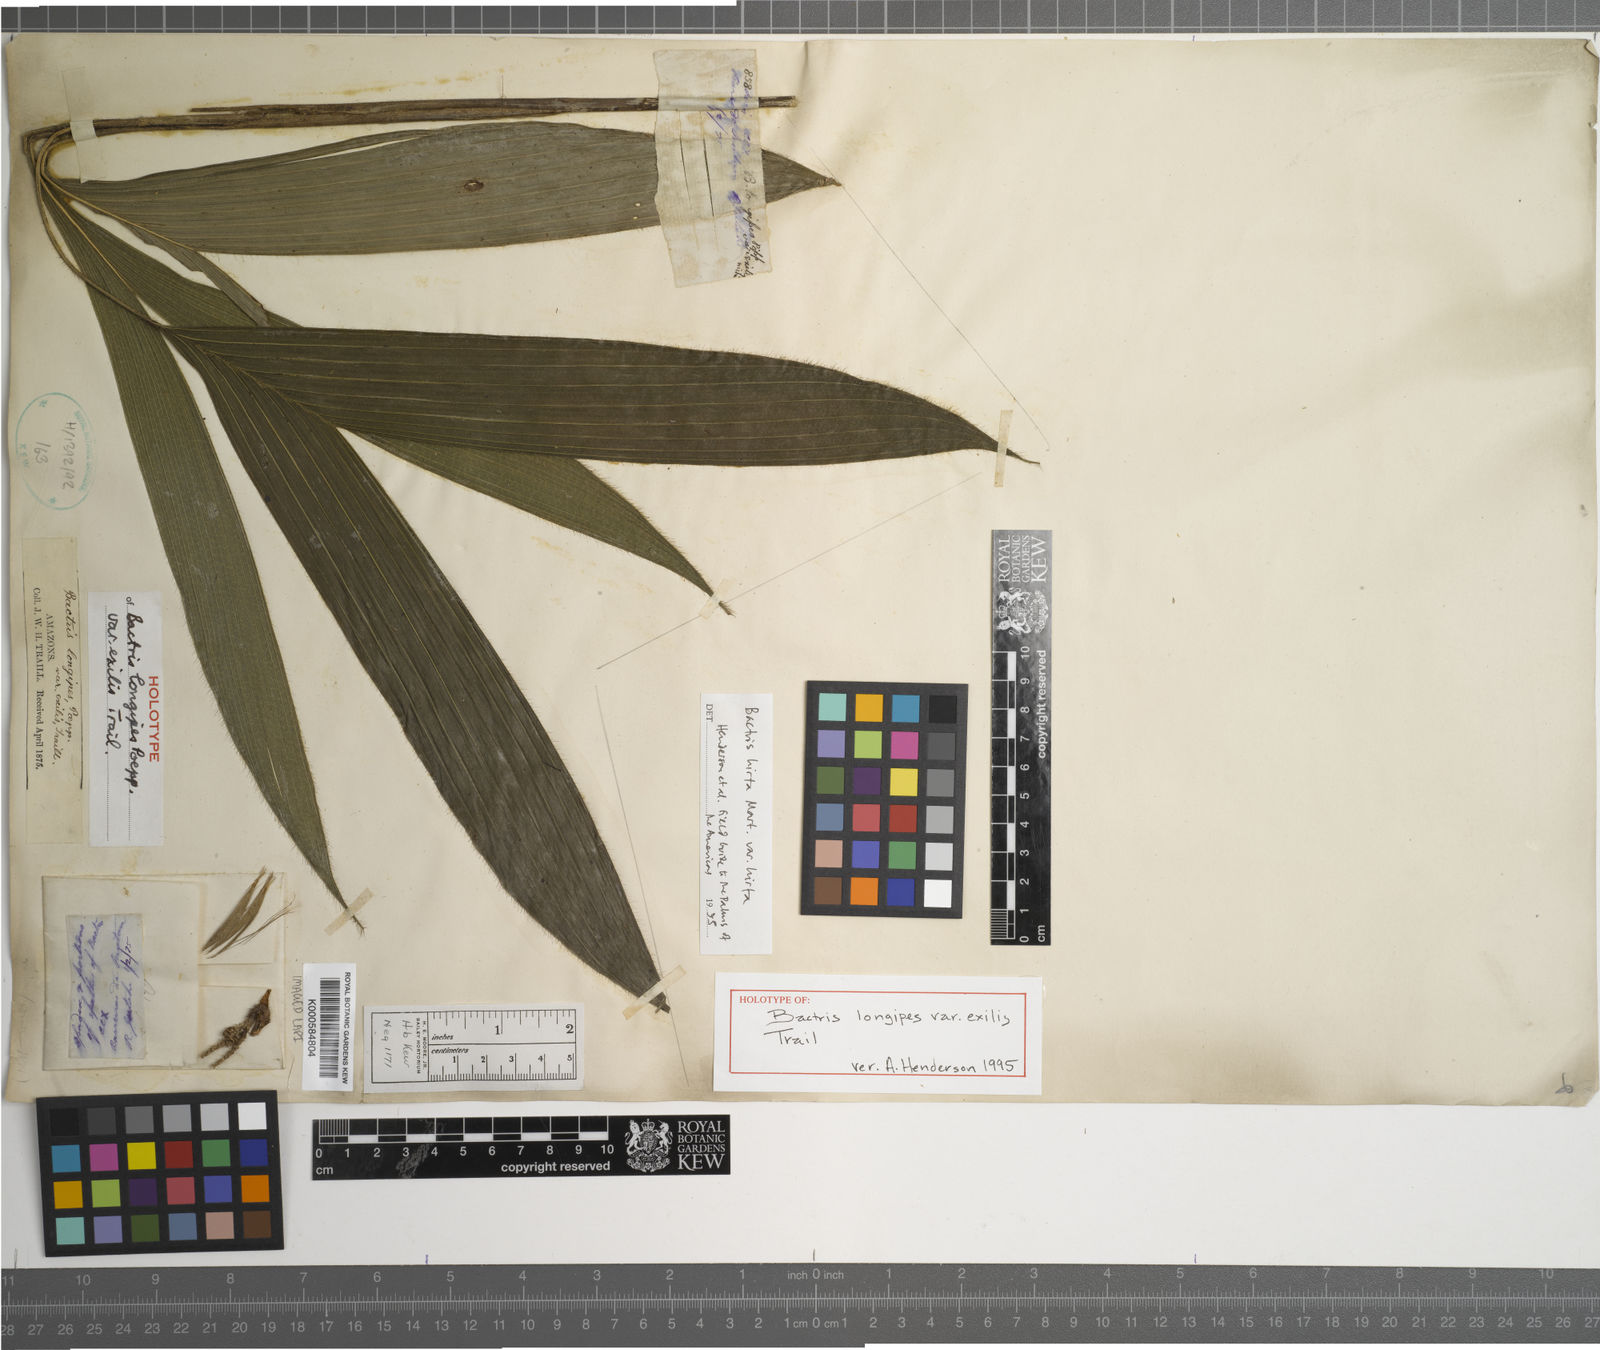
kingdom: Plantae
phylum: Tracheophyta
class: Liliopsida
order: Arecales
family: Arecaceae
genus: Bactris
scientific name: Bactris hirta
